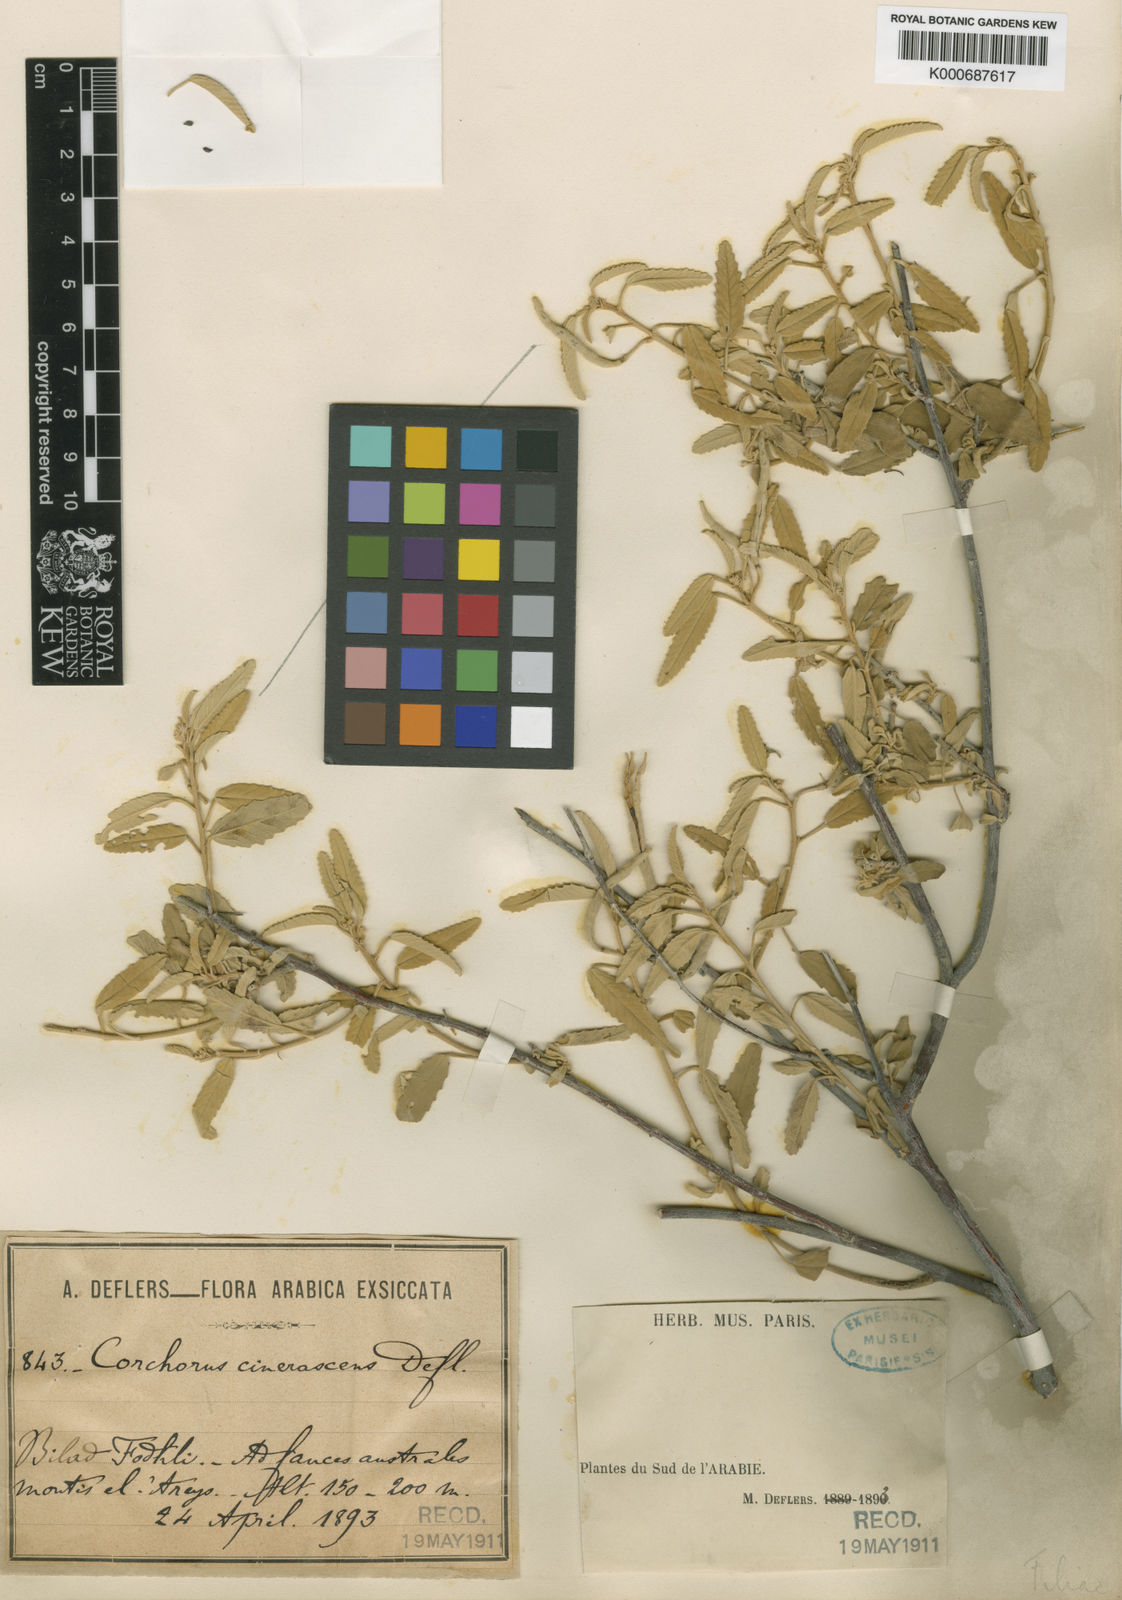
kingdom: Plantae
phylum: Tracheophyta
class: Magnoliopsida
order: Malvales
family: Malvaceae
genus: Corchorus
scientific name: Corchorus cinerascens
